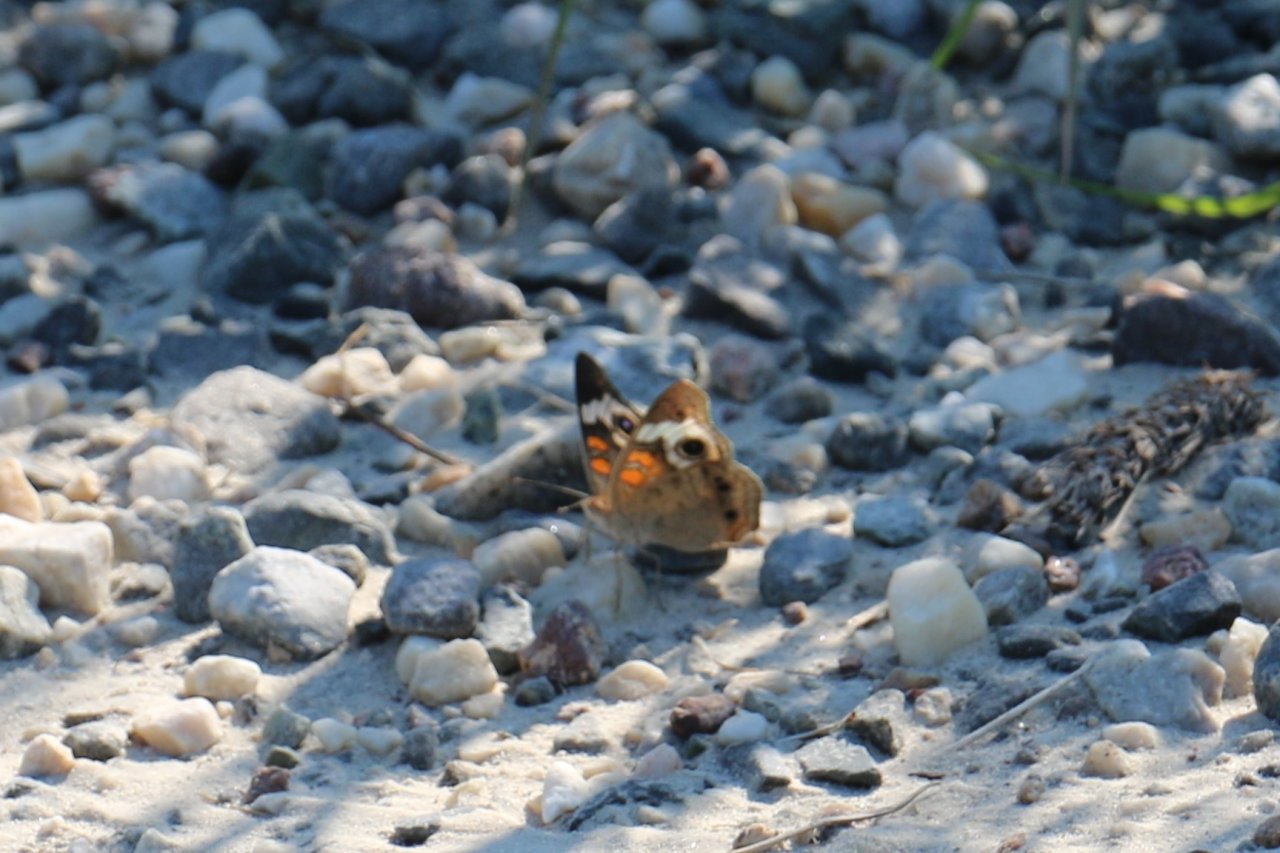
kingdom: Animalia
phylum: Arthropoda
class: Insecta
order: Lepidoptera
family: Nymphalidae
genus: Junonia
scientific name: Junonia coenia
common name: Common Buckeye
